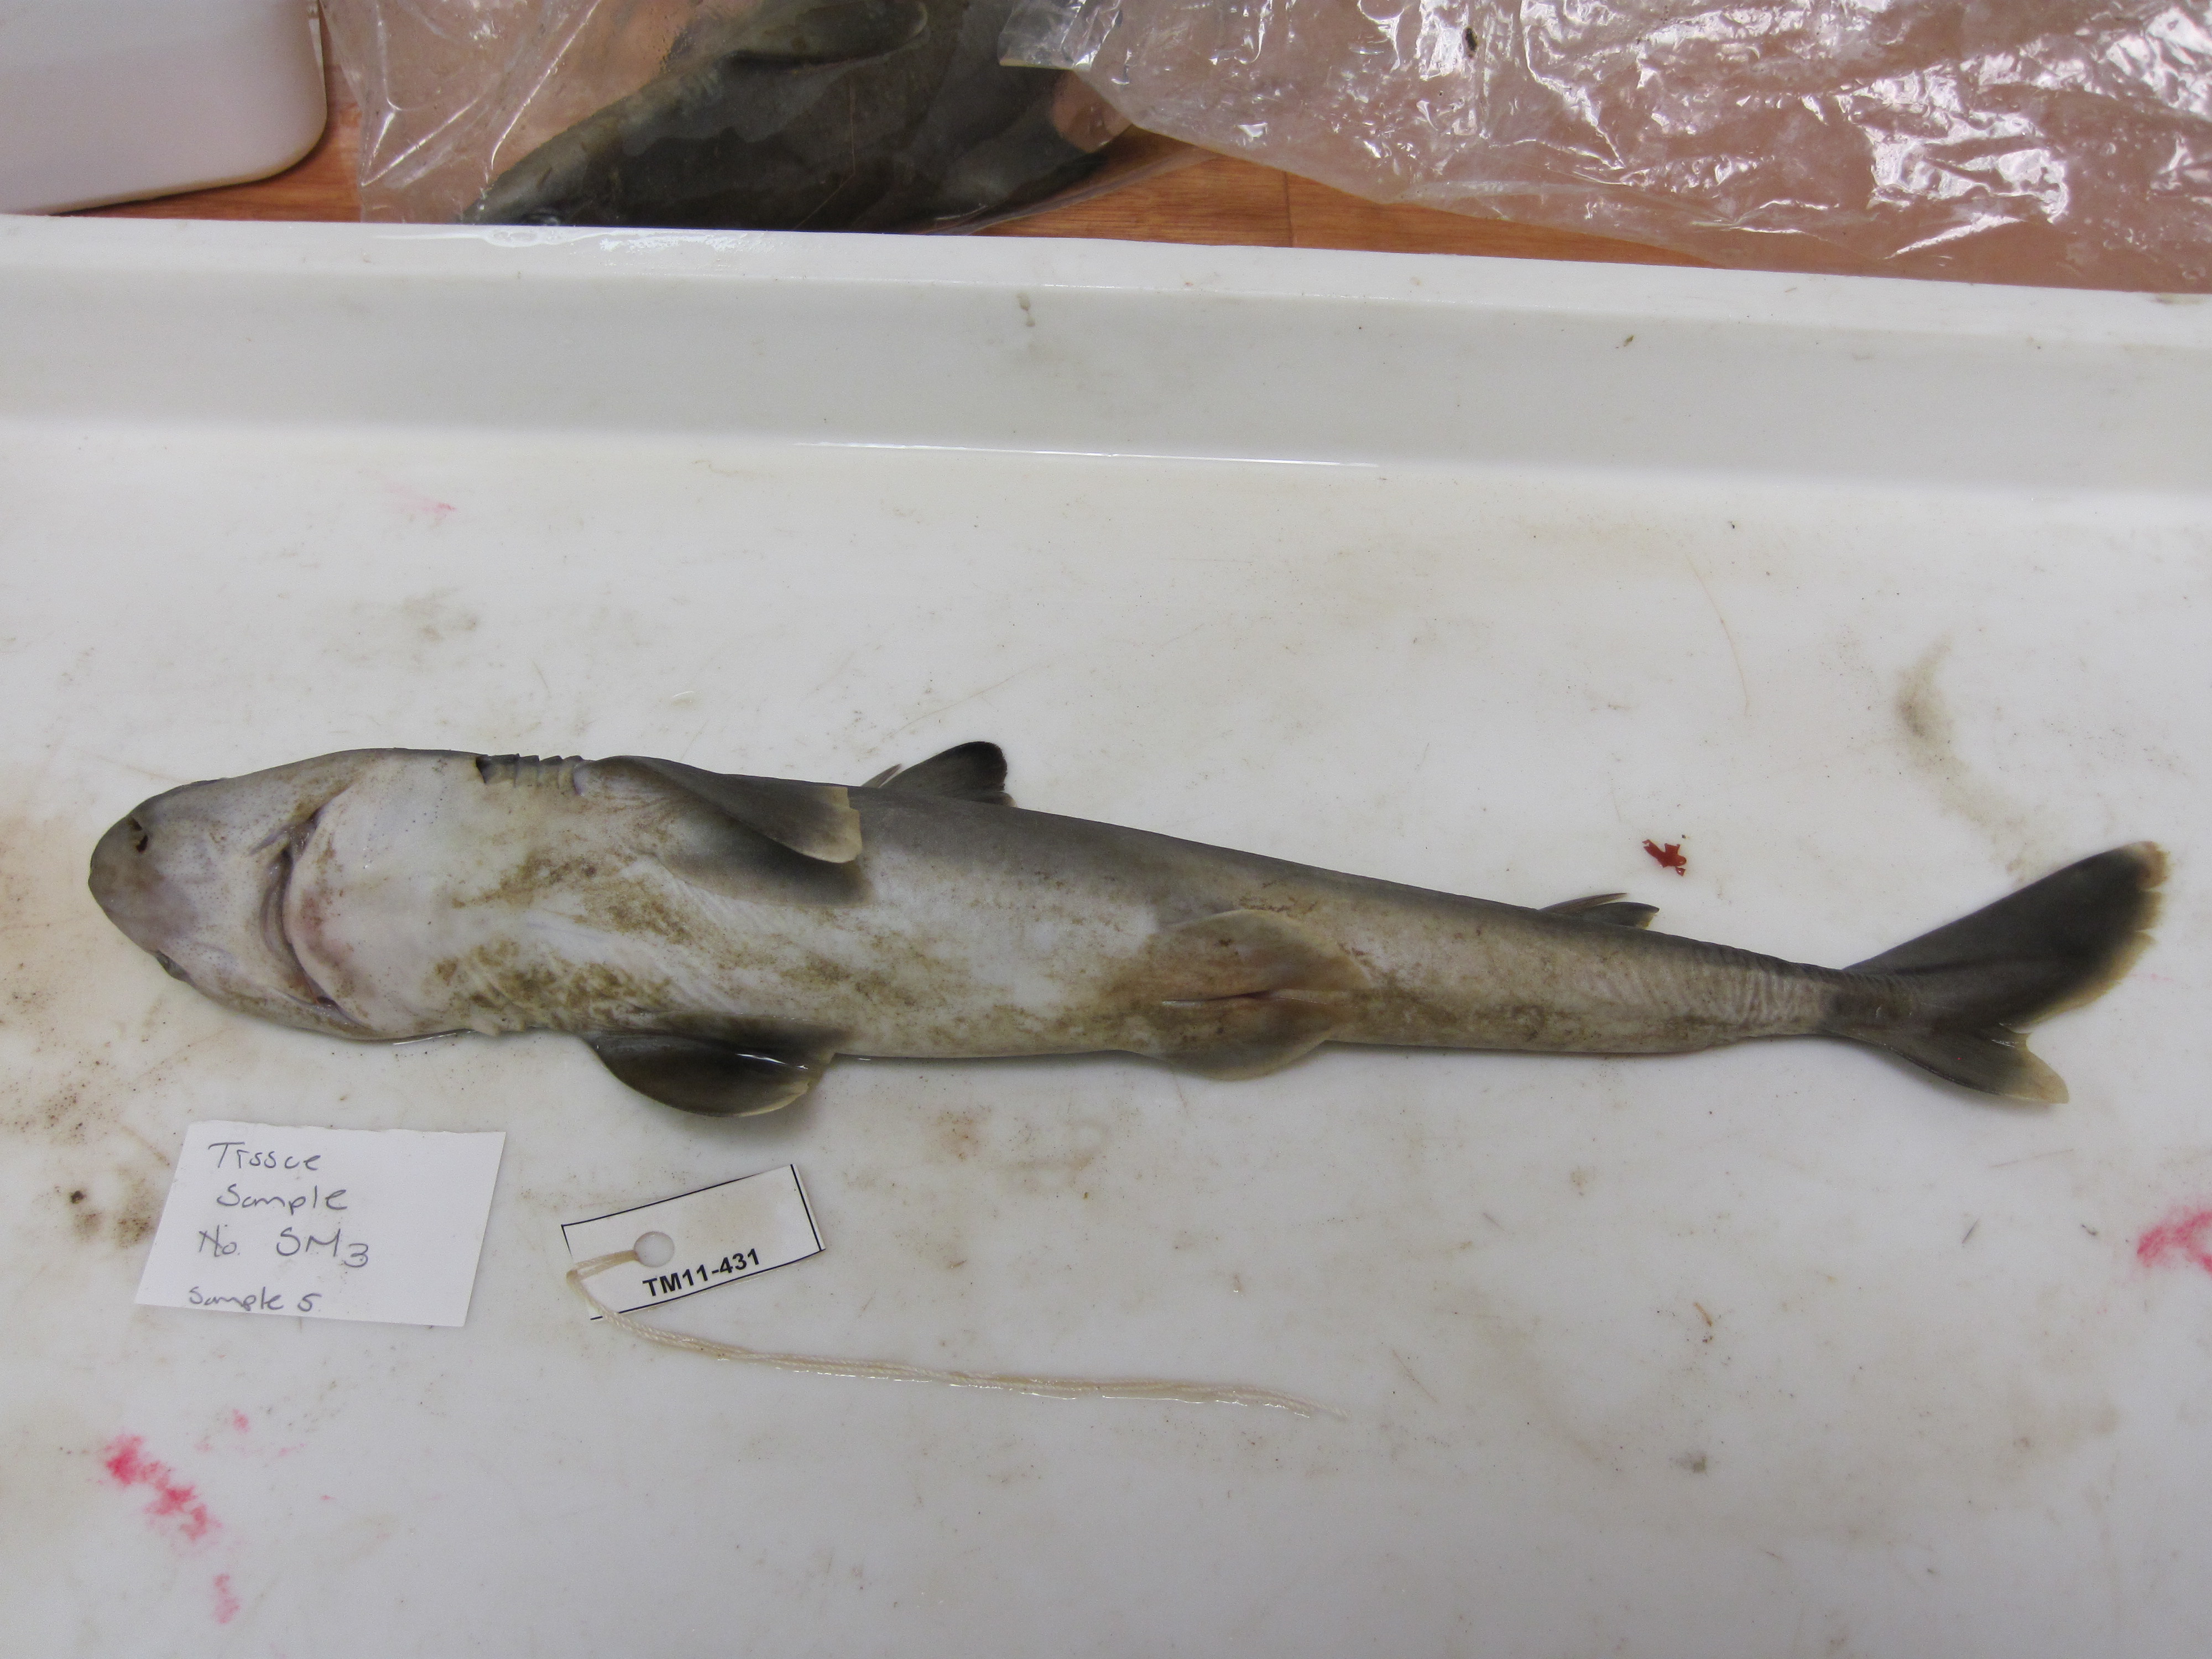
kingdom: Animalia
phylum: Chordata
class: Elasmobranchii
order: Squaliformes
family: Squalidae
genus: Squalus
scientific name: Squalus
